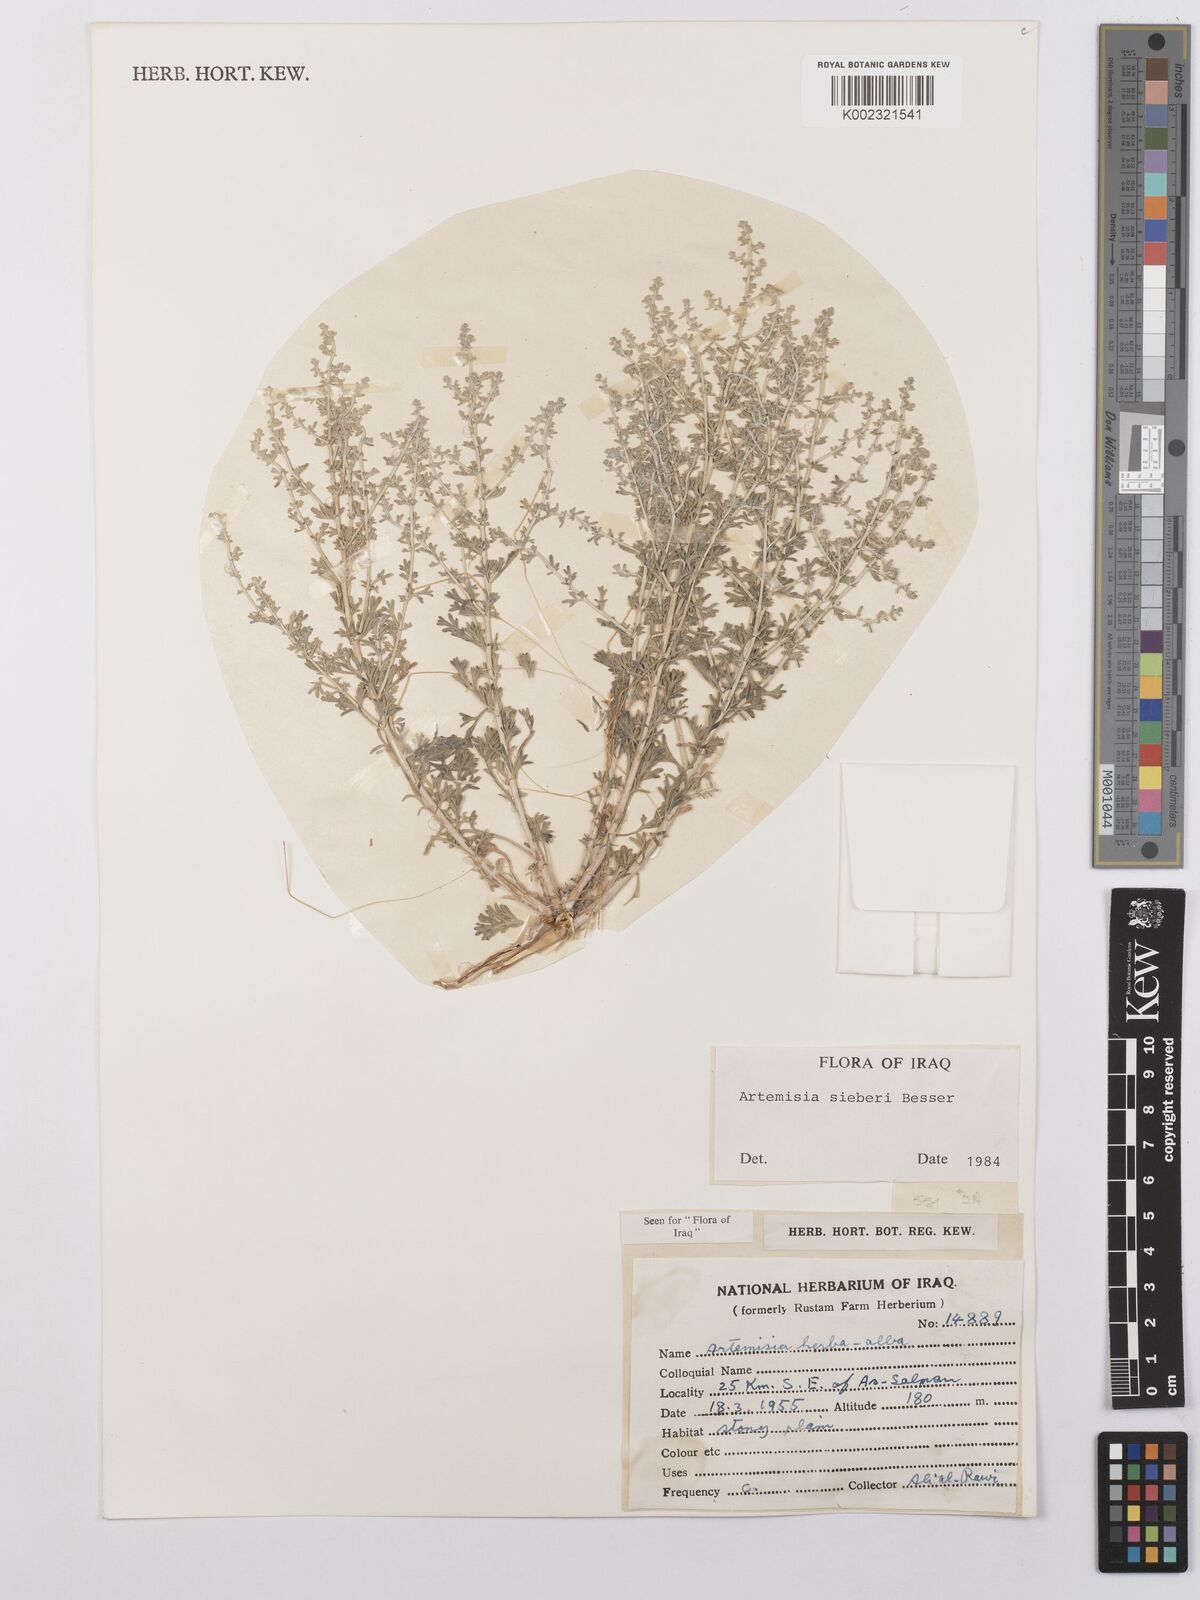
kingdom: Plantae
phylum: Tracheophyta
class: Magnoliopsida
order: Asterales
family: Asteraceae
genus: Artemisia
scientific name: Artemisia sieberi
